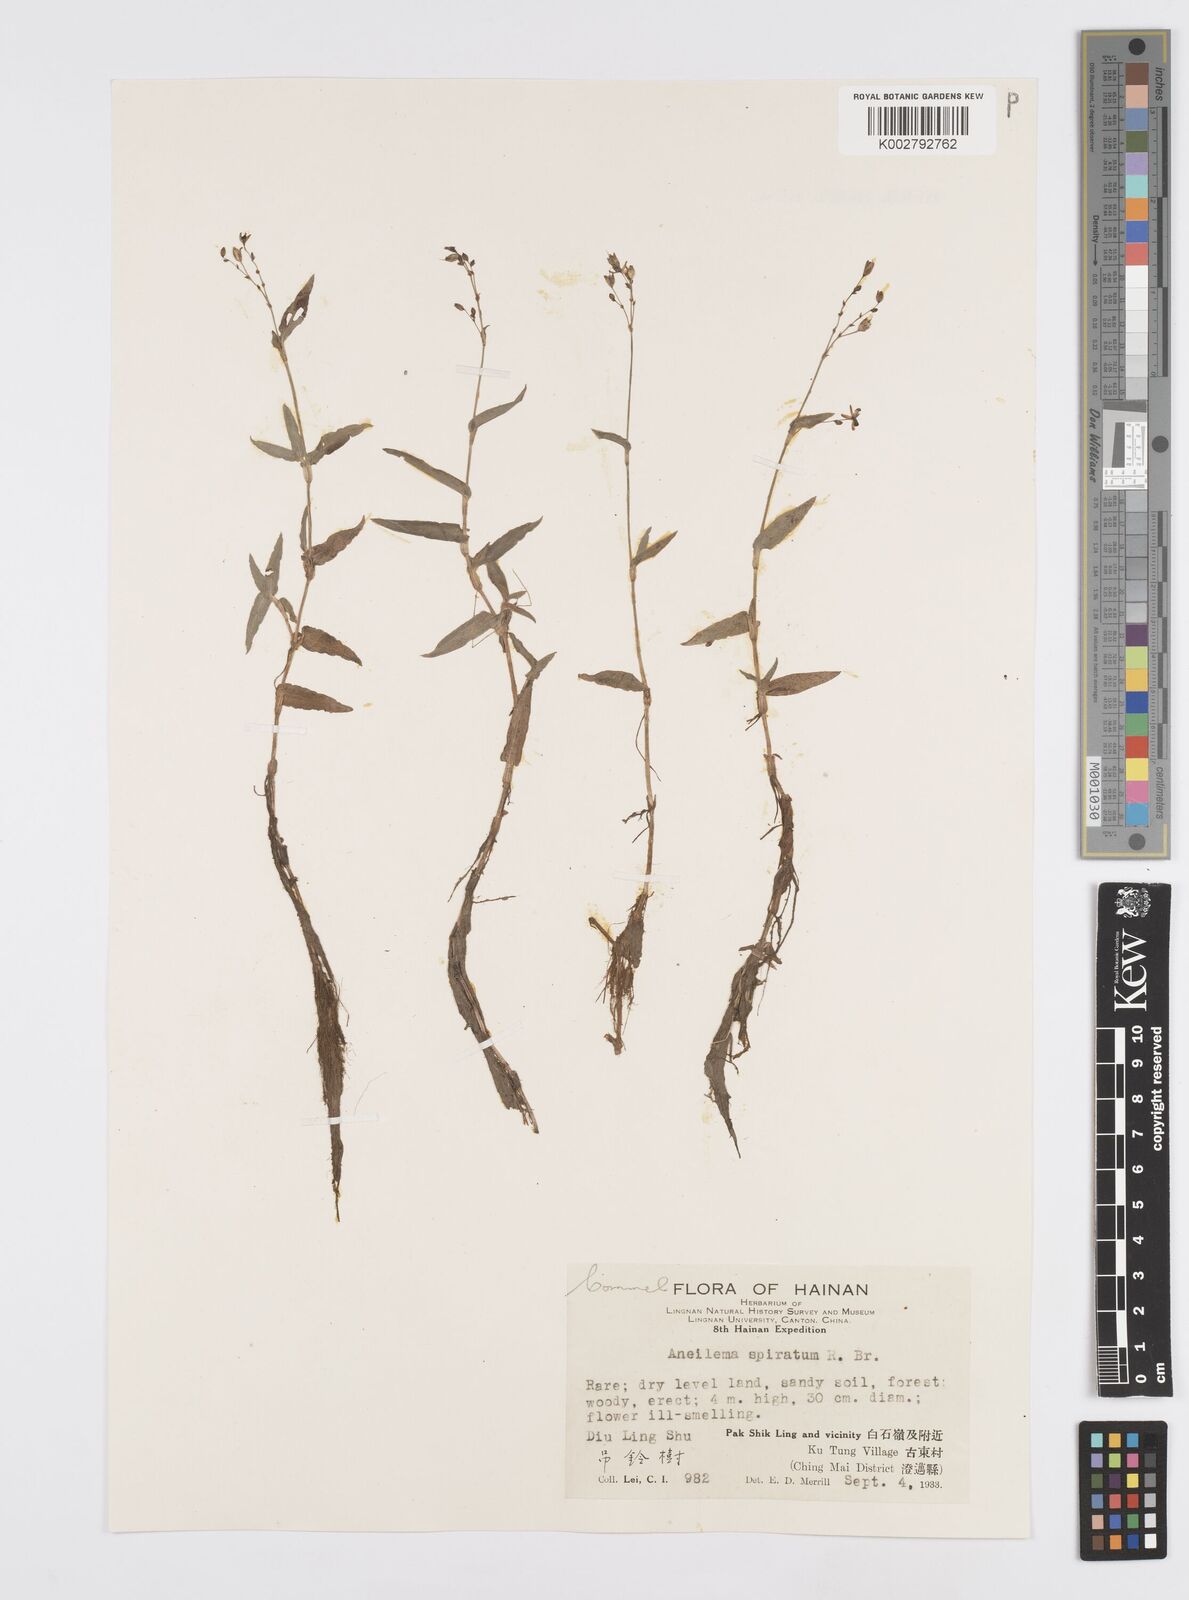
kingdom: Plantae
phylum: Tracheophyta
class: Liliopsida
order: Commelinales
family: Commelinaceae
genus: Murdannia
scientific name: Murdannia
